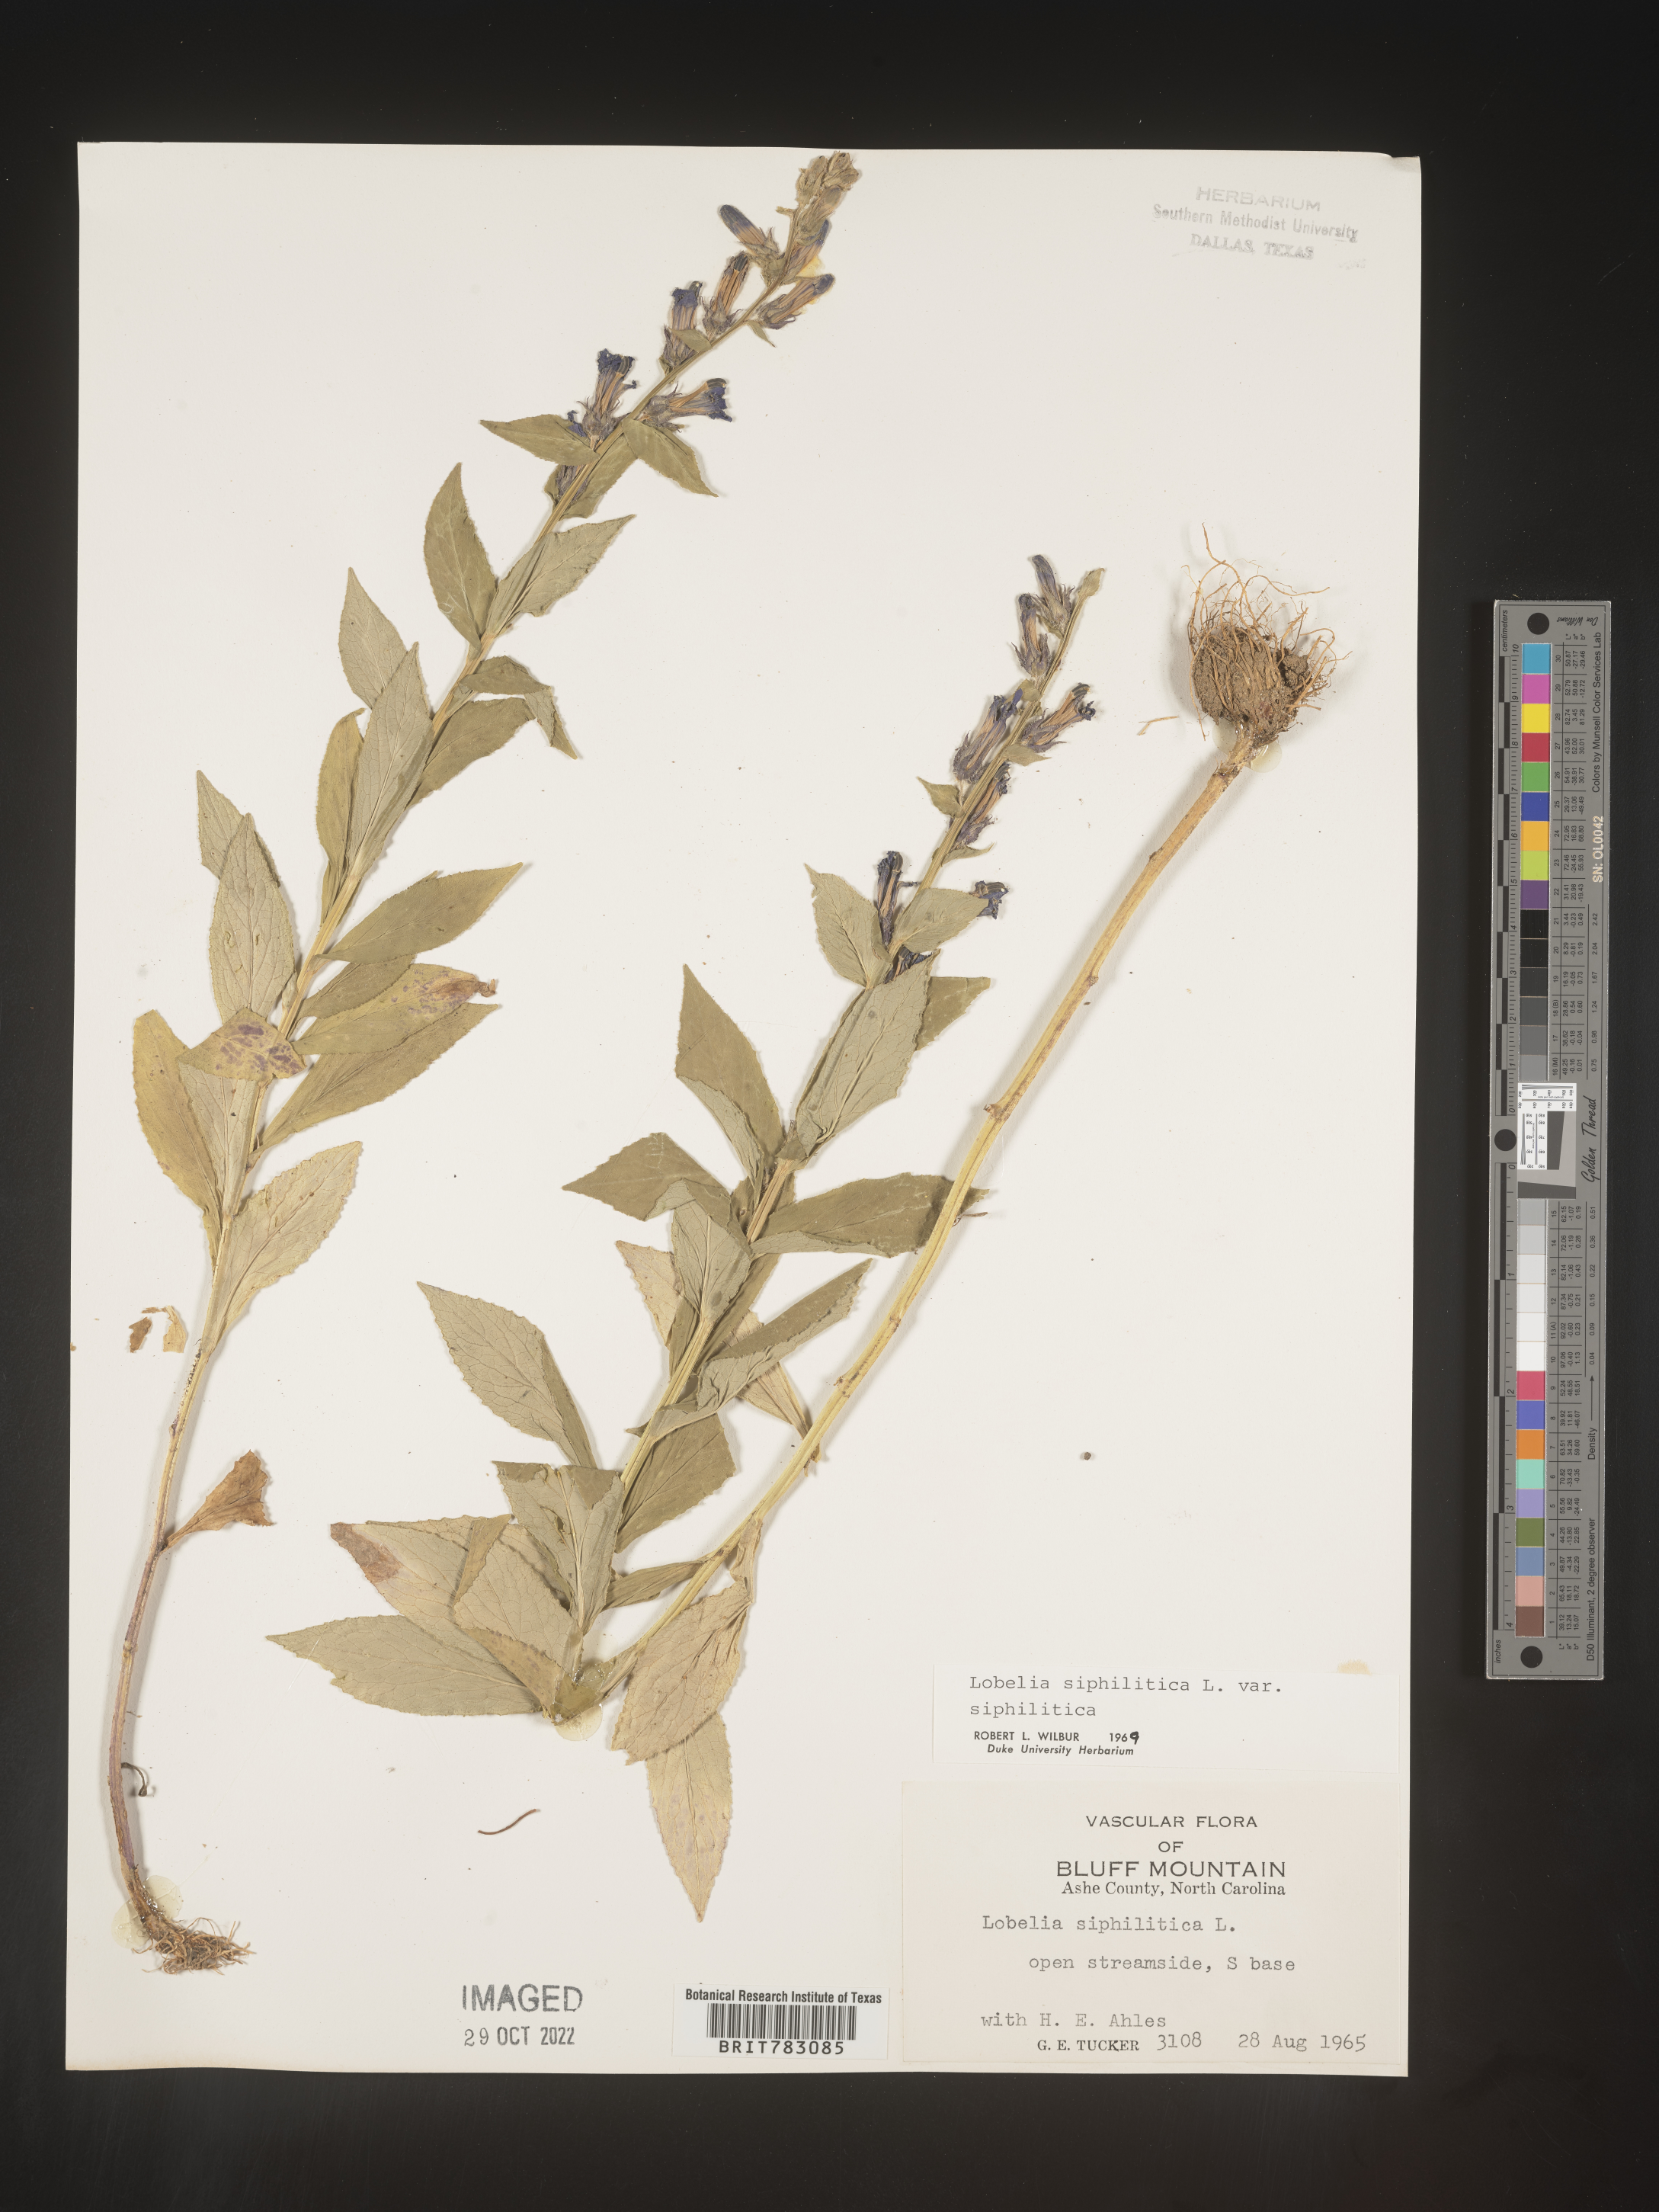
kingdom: Plantae
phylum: Tracheophyta
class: Magnoliopsida
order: Asterales
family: Campanulaceae
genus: Lobelia
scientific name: Lobelia siphilitica
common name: Great lobelia
